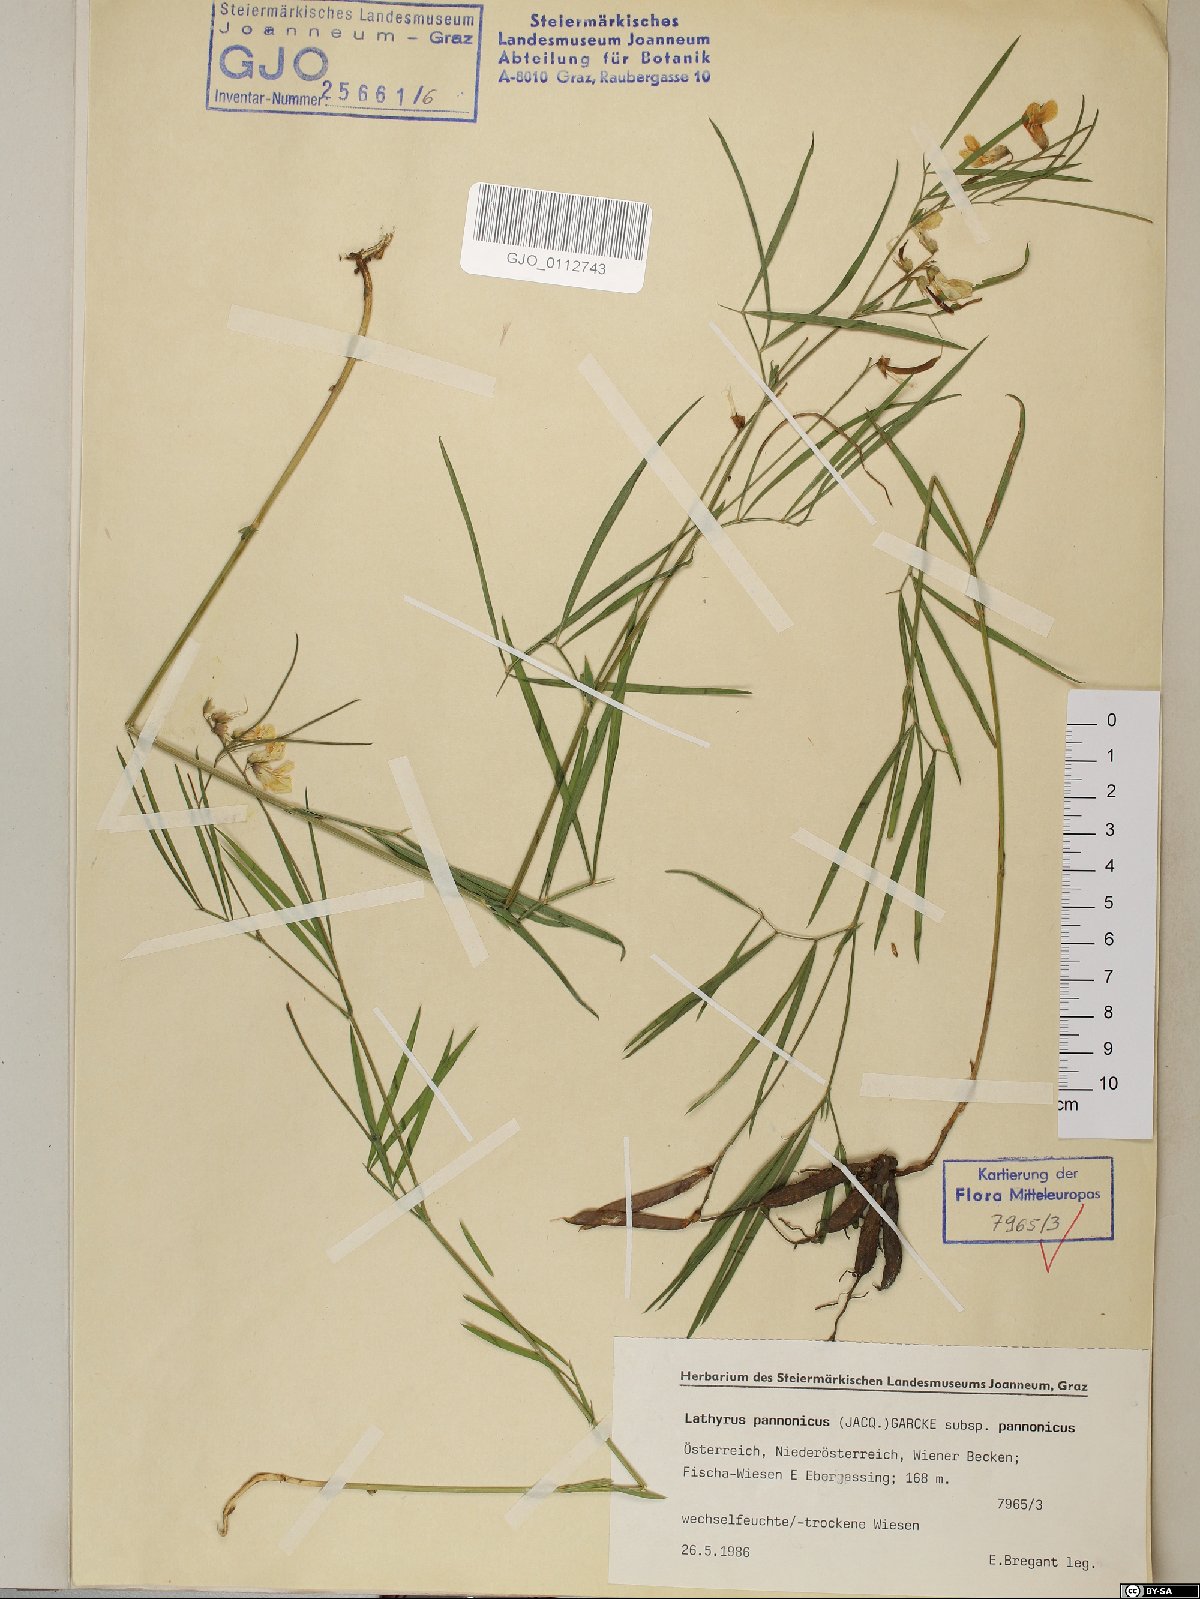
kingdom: Plantae
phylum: Tracheophyta
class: Magnoliopsida
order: Fabales
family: Fabaceae
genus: Lathyrus
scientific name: Lathyrus pannonicus
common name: Pea
